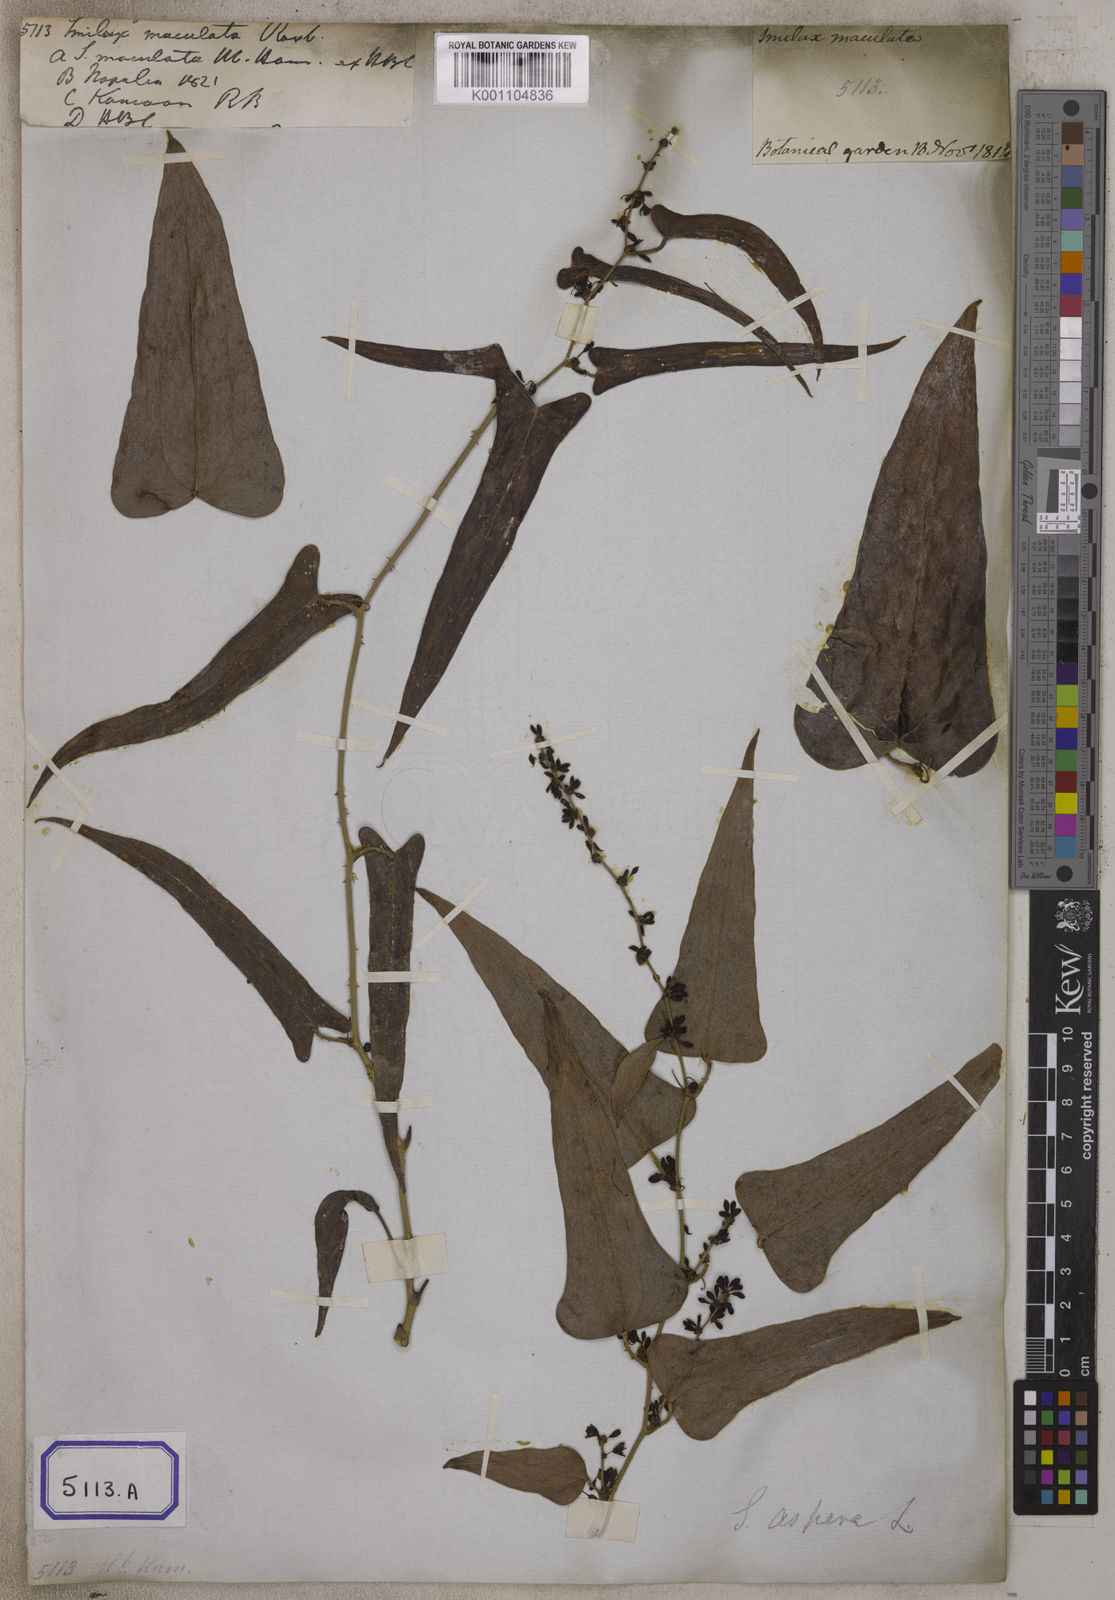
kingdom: Plantae
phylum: Tracheophyta
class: Liliopsida
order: Liliales
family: Smilacaceae
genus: Smilax
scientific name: Smilax
